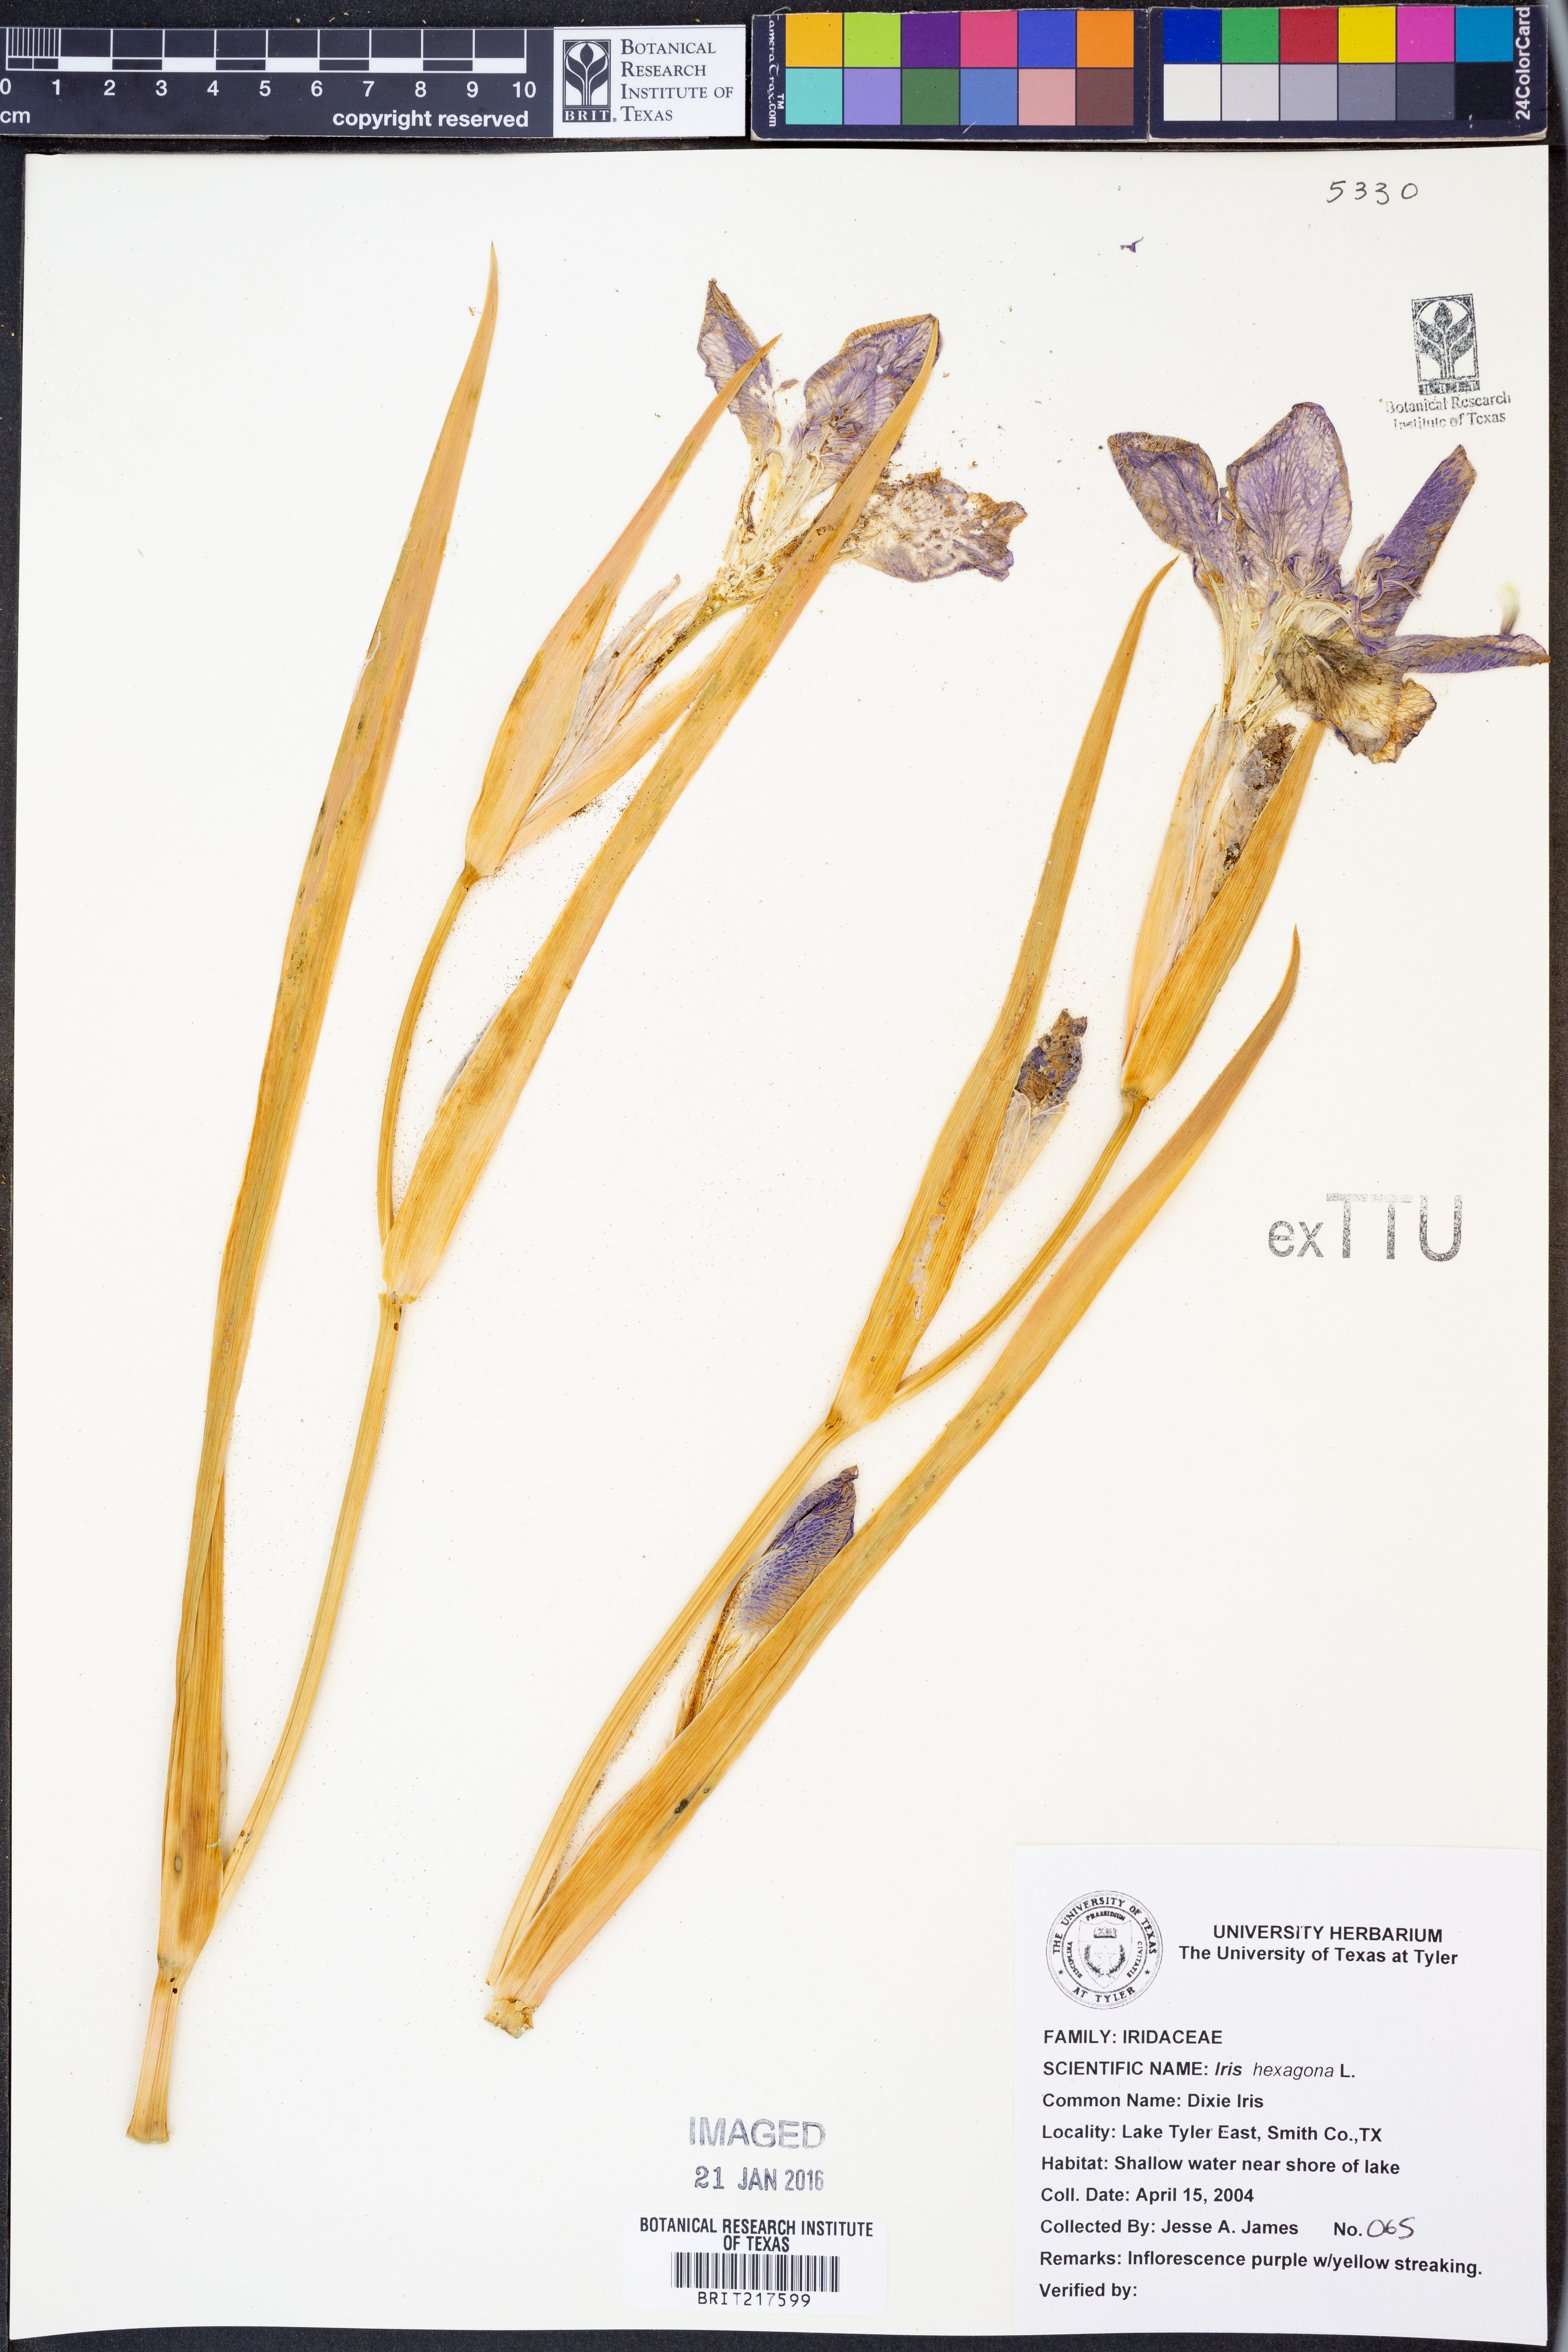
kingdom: Plantae
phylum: Tracheophyta
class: Liliopsida
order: Asparagales
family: Iridaceae
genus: Iris
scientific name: Iris hexagona
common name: Carolina iris
